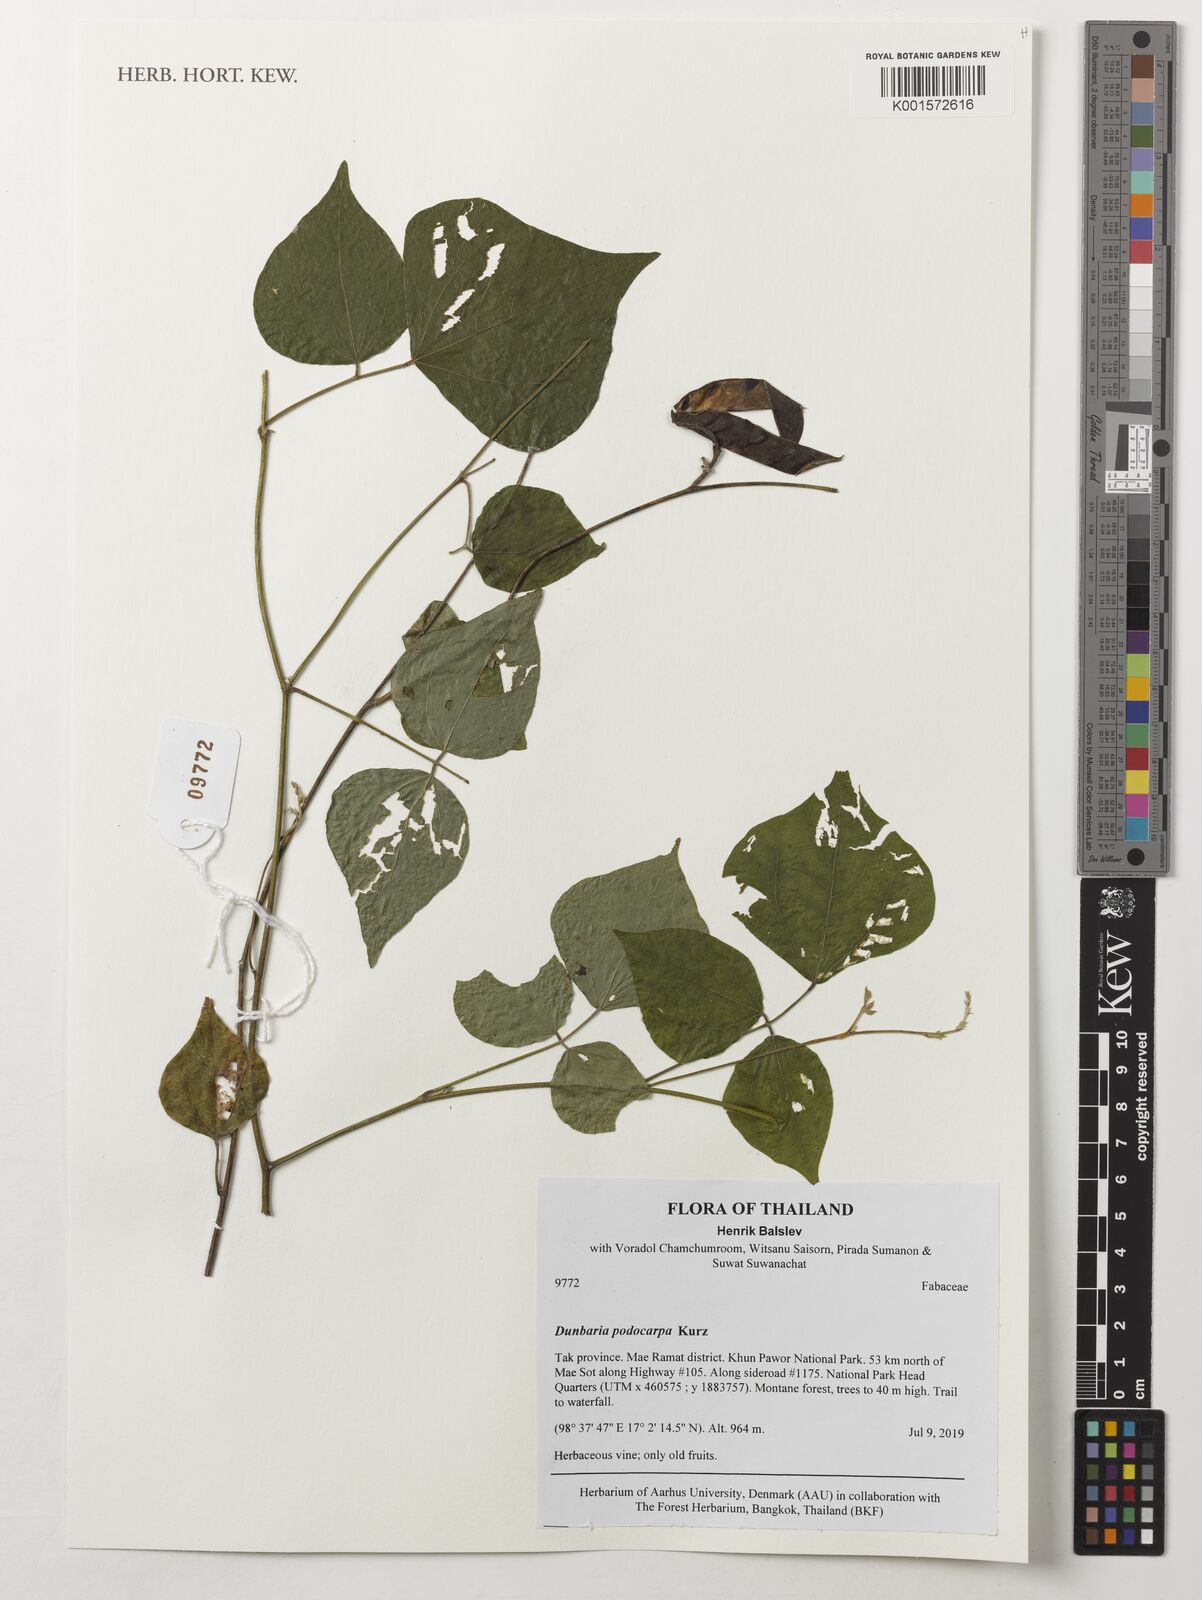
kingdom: Plantae
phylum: Tracheophyta
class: Magnoliopsida
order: Fabales
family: Fabaceae
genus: Dunbaria
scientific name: Dunbaria podocarpa
